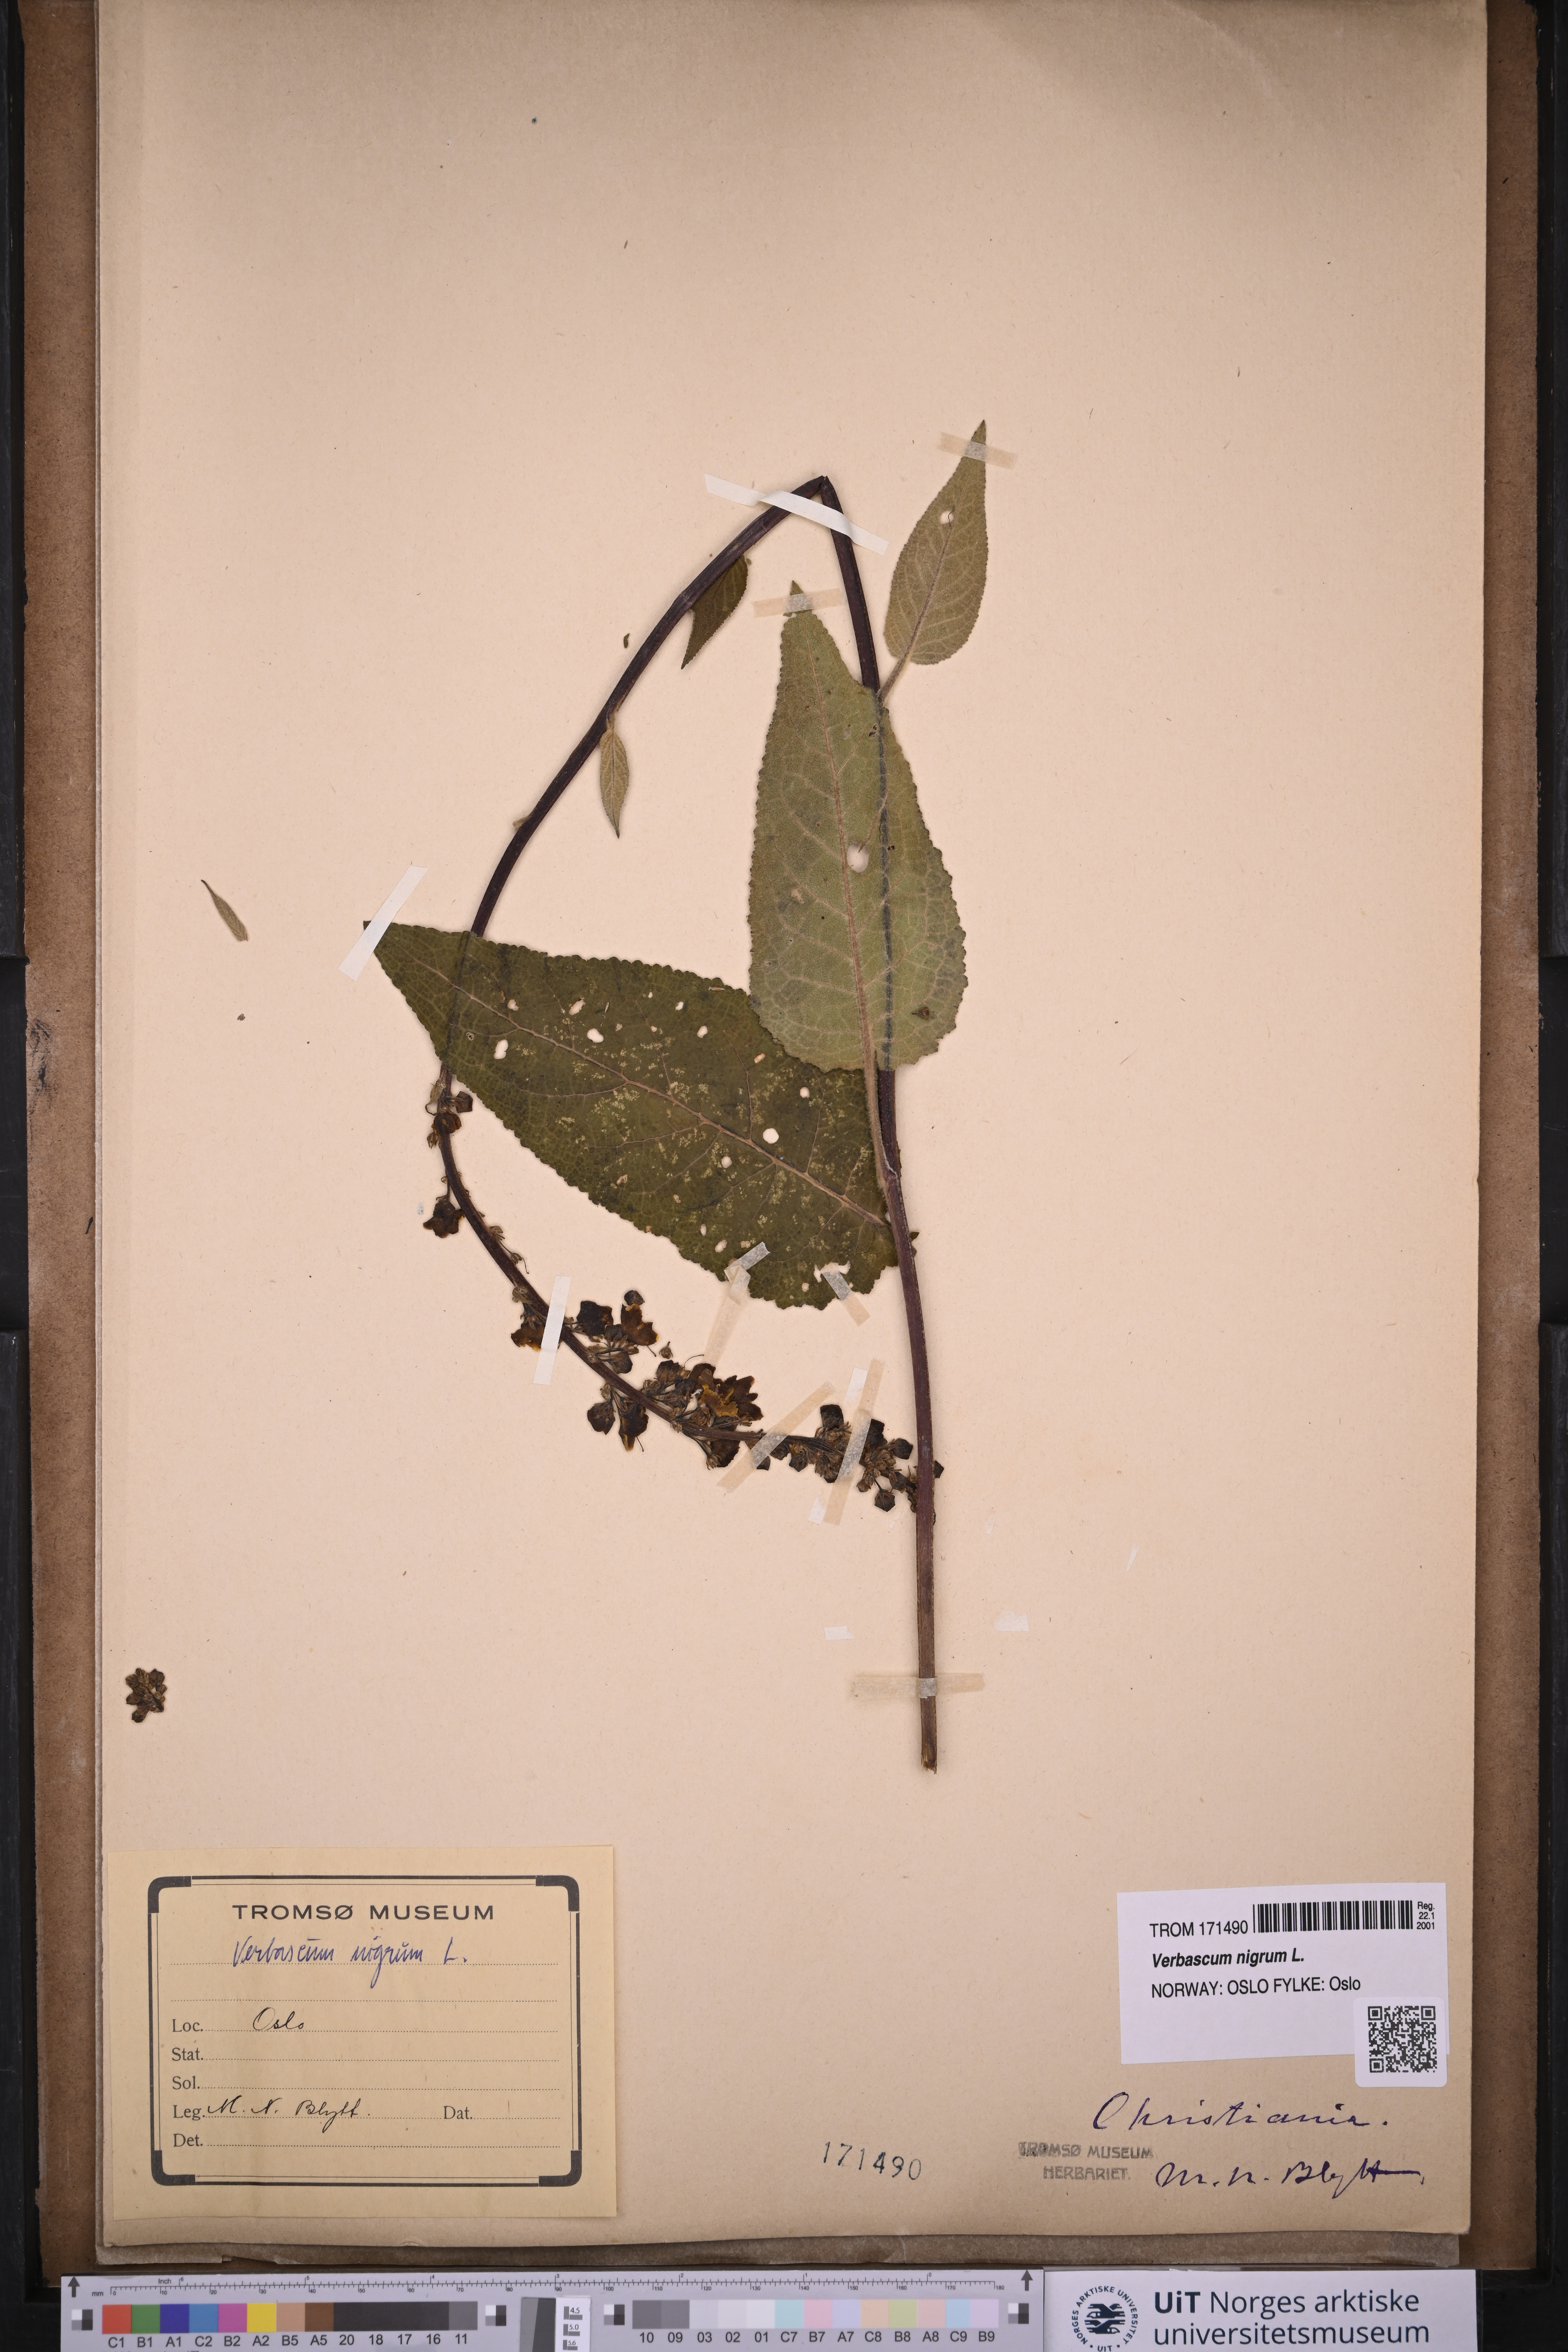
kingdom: Plantae
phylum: Tracheophyta
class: Magnoliopsida
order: Lamiales
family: Scrophulariaceae
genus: Verbascum
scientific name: Verbascum nigrum
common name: Dark mullein
